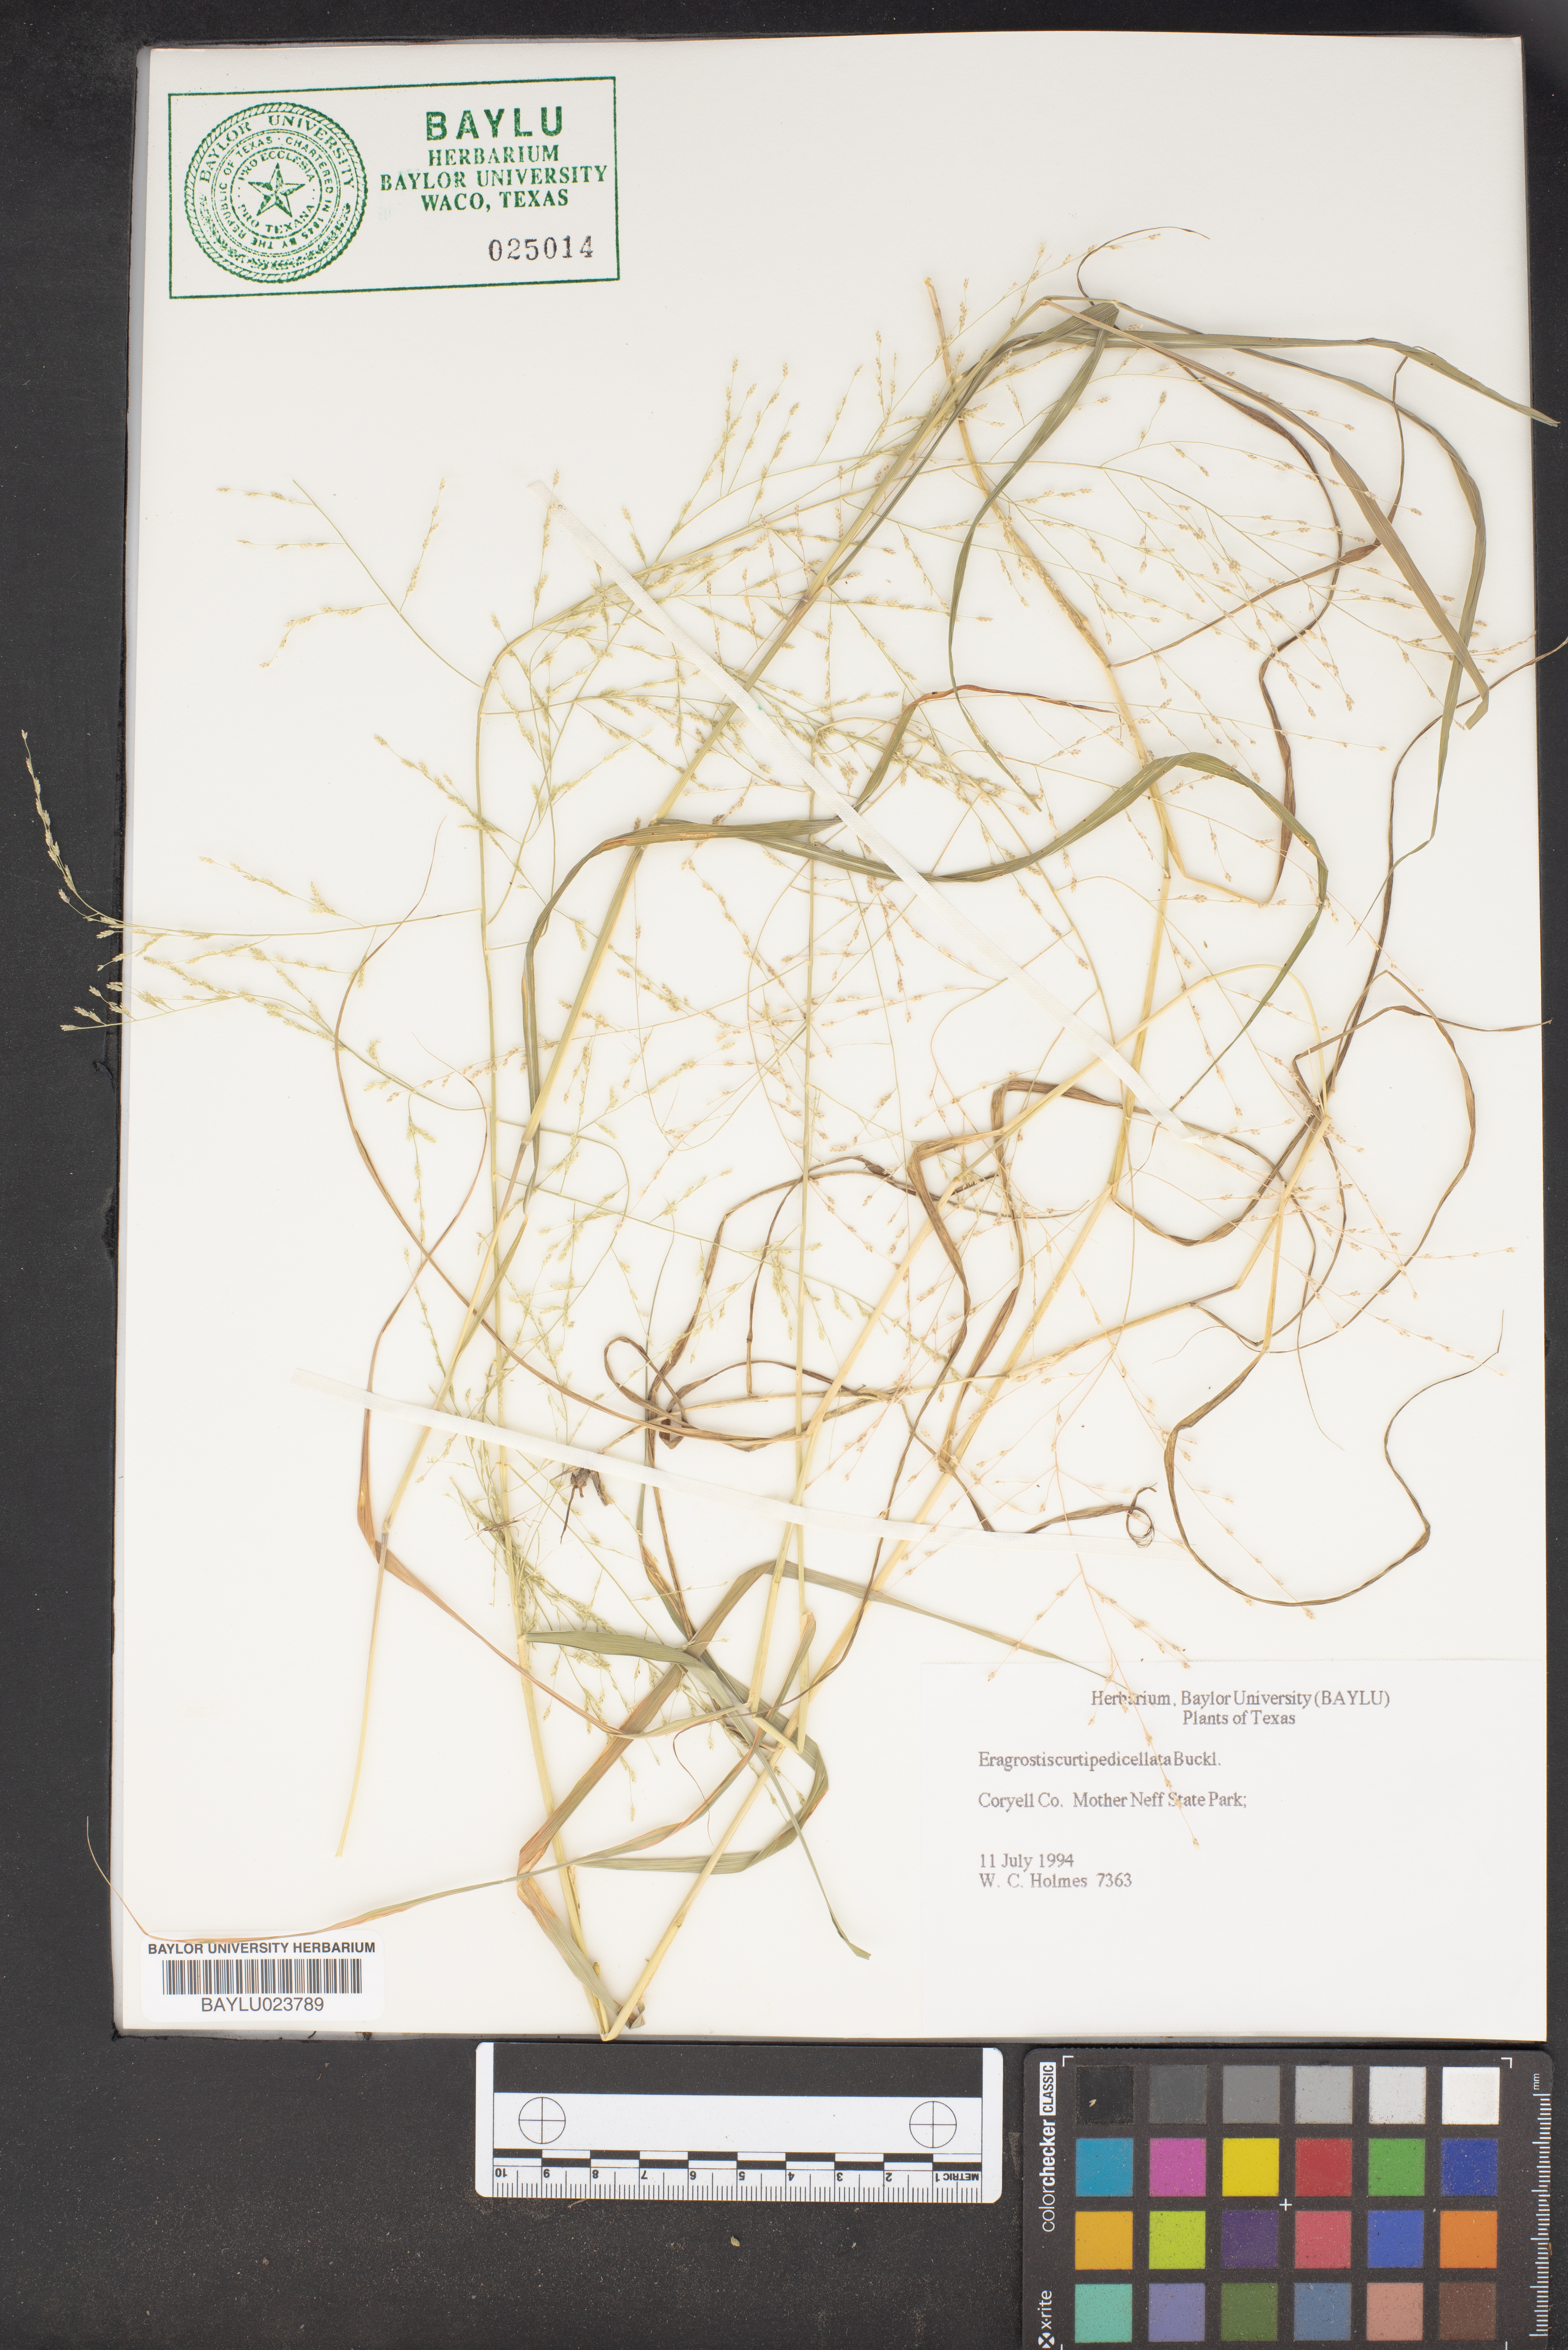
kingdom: Plantae
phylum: Tracheophyta
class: Liliopsida
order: Poales
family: Poaceae
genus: Eragrostis
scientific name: Eragrostis curtipedicellata
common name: Gummy love grass
